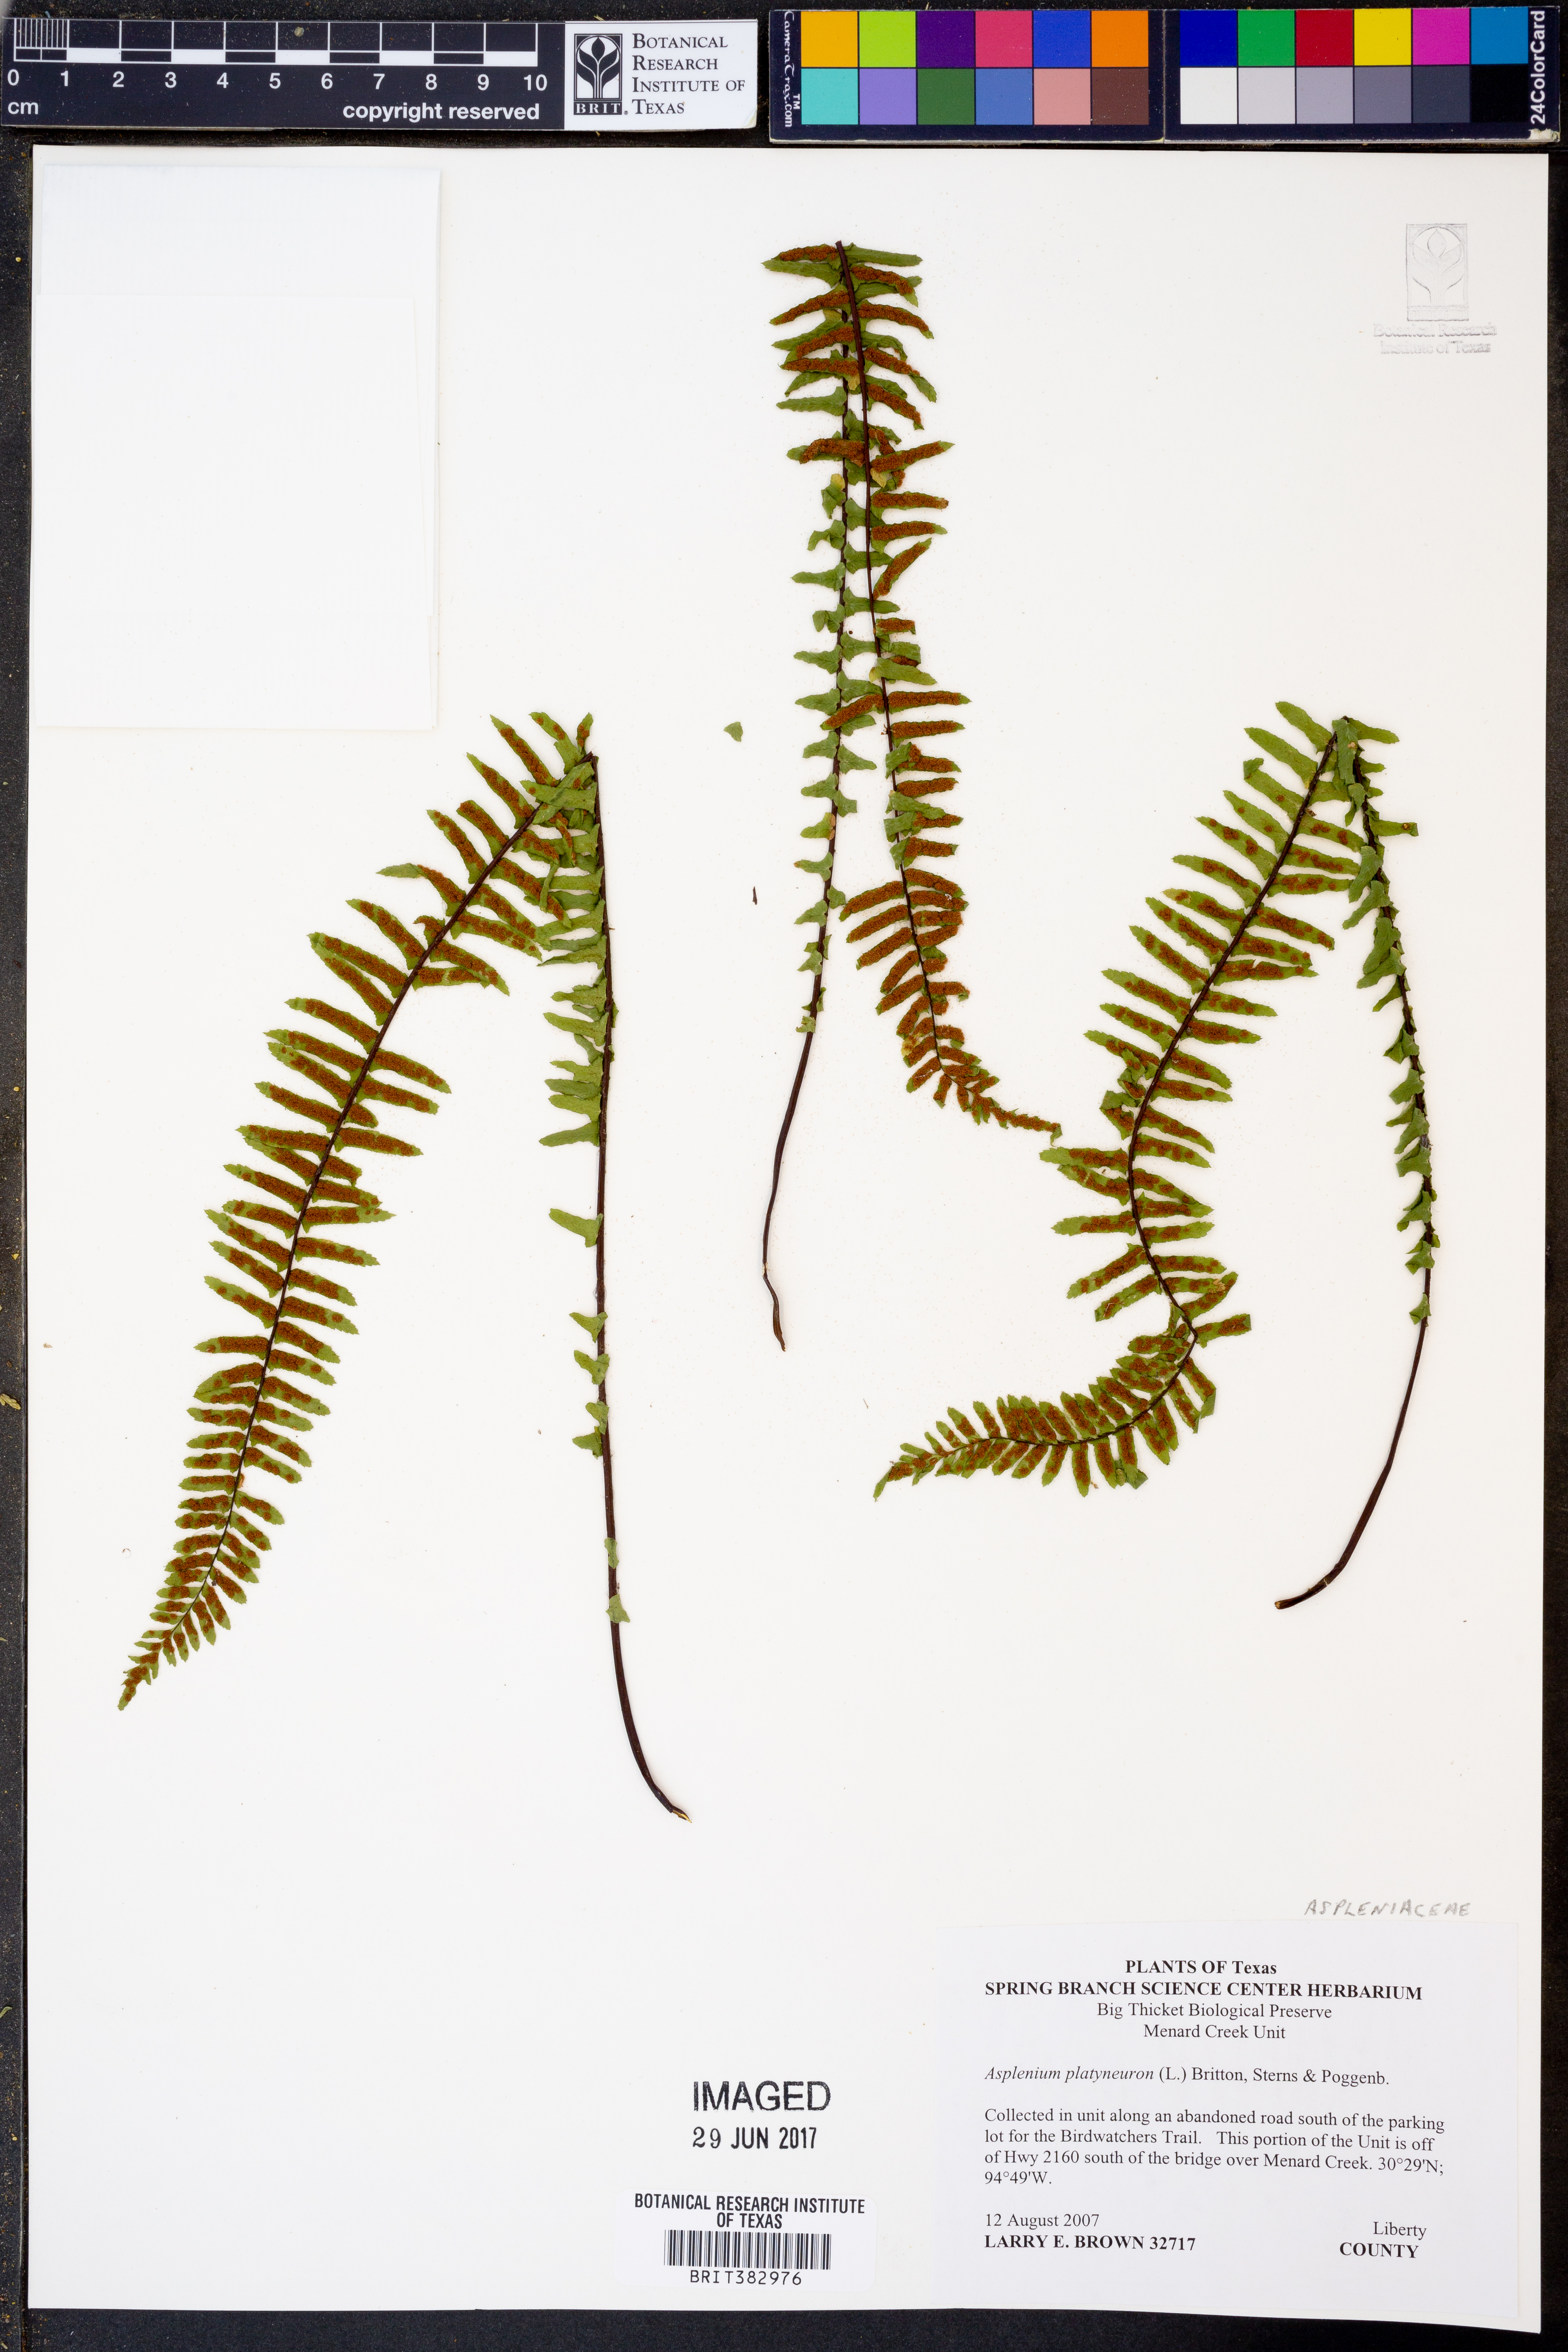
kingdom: Plantae
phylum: Tracheophyta
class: Polypodiopsida
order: Polypodiales
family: Aspleniaceae
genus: Asplenium
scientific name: Asplenium platyneuron
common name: Ebony spleenwort
